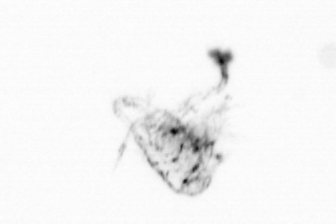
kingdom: Animalia
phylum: Arthropoda
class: Copepoda
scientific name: Copepoda
